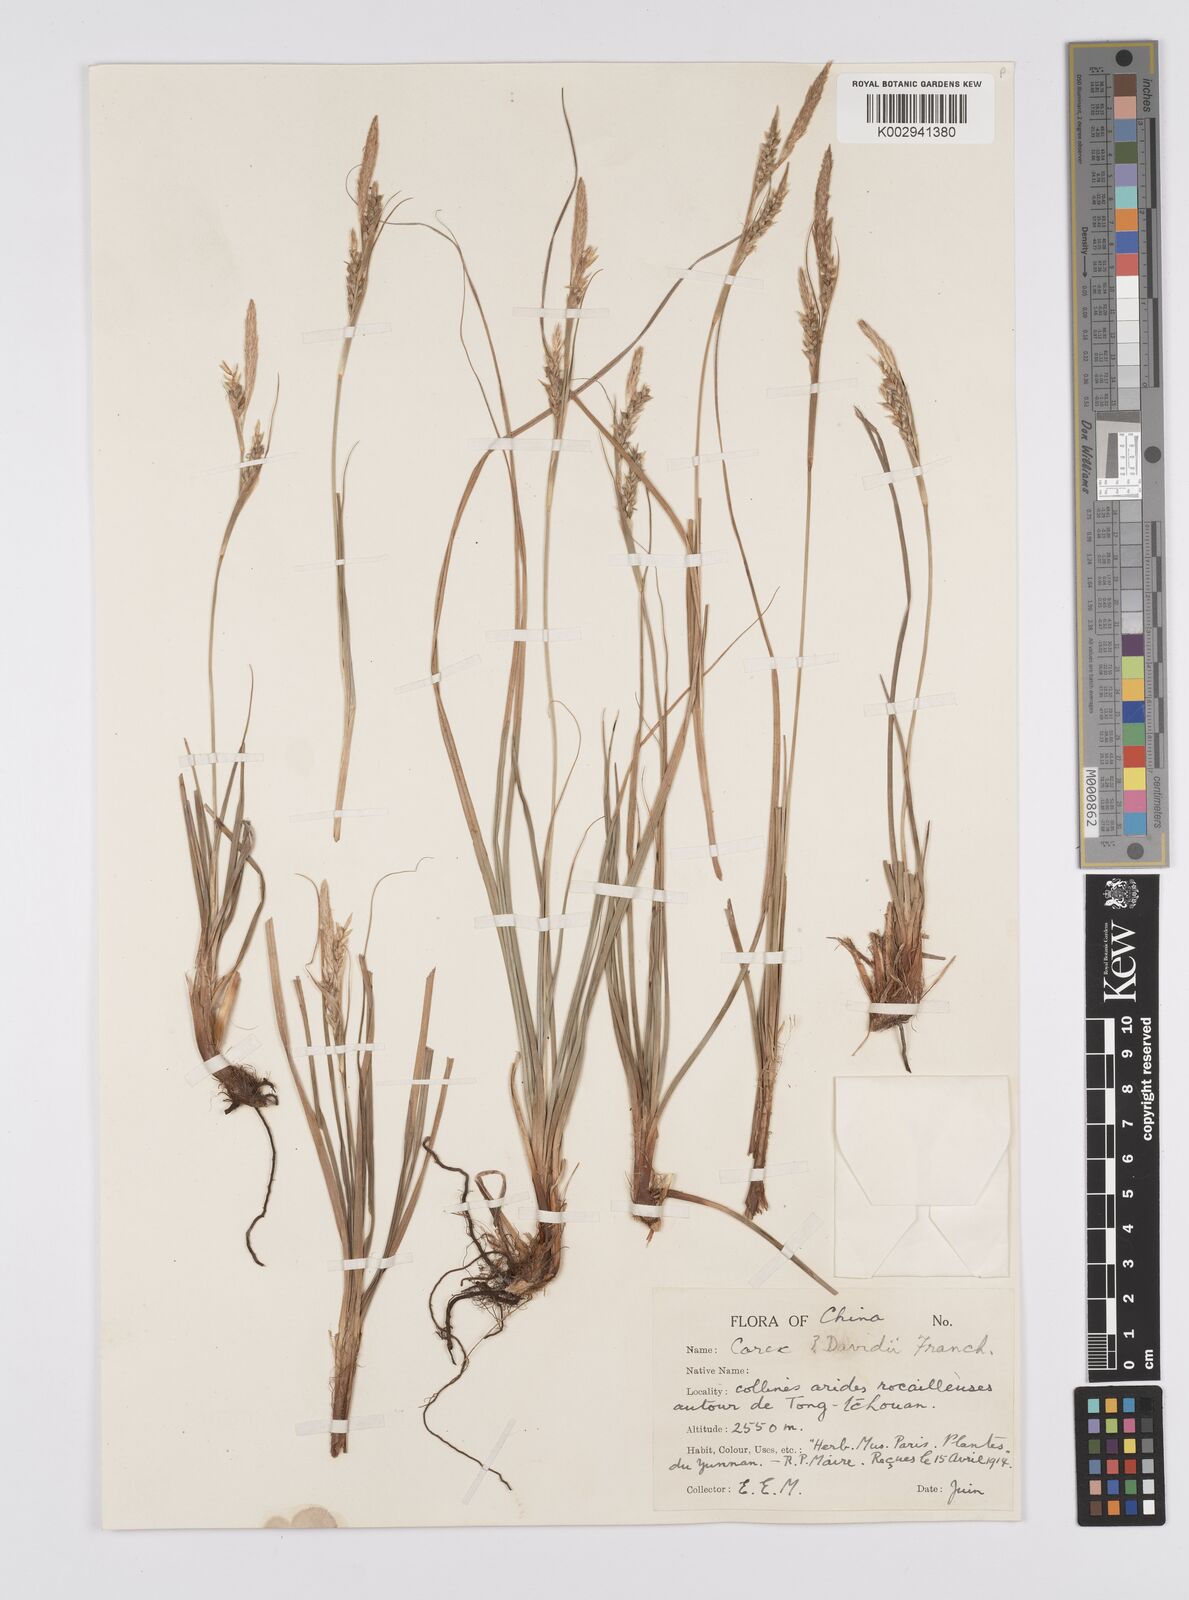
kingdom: Plantae
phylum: Tracheophyta
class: Liliopsida
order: Poales
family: Cyperaceae
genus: Carex
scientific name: Carex davidii
